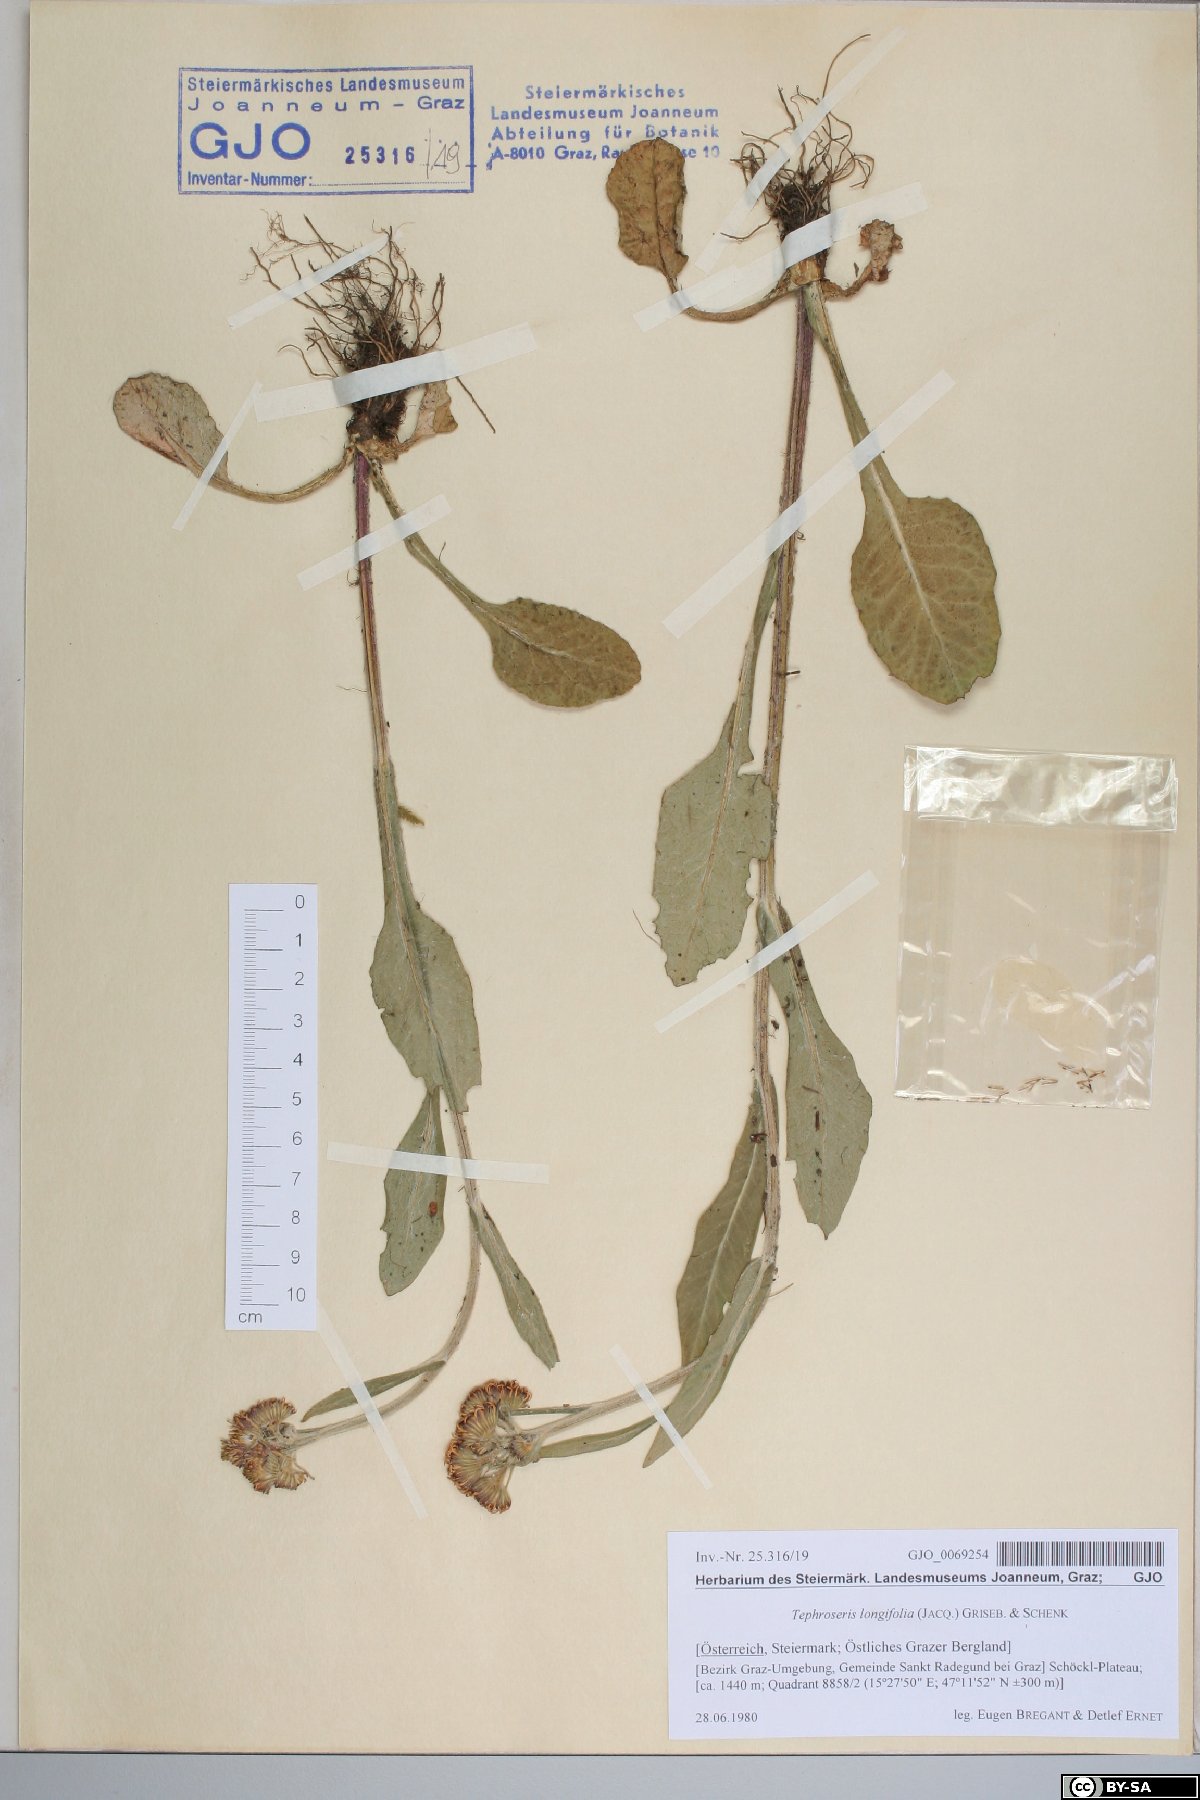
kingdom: Plantae
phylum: Tracheophyta
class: Magnoliopsida
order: Asterales
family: Asteraceae
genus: Tephroseris
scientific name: Tephroseris longifolia
